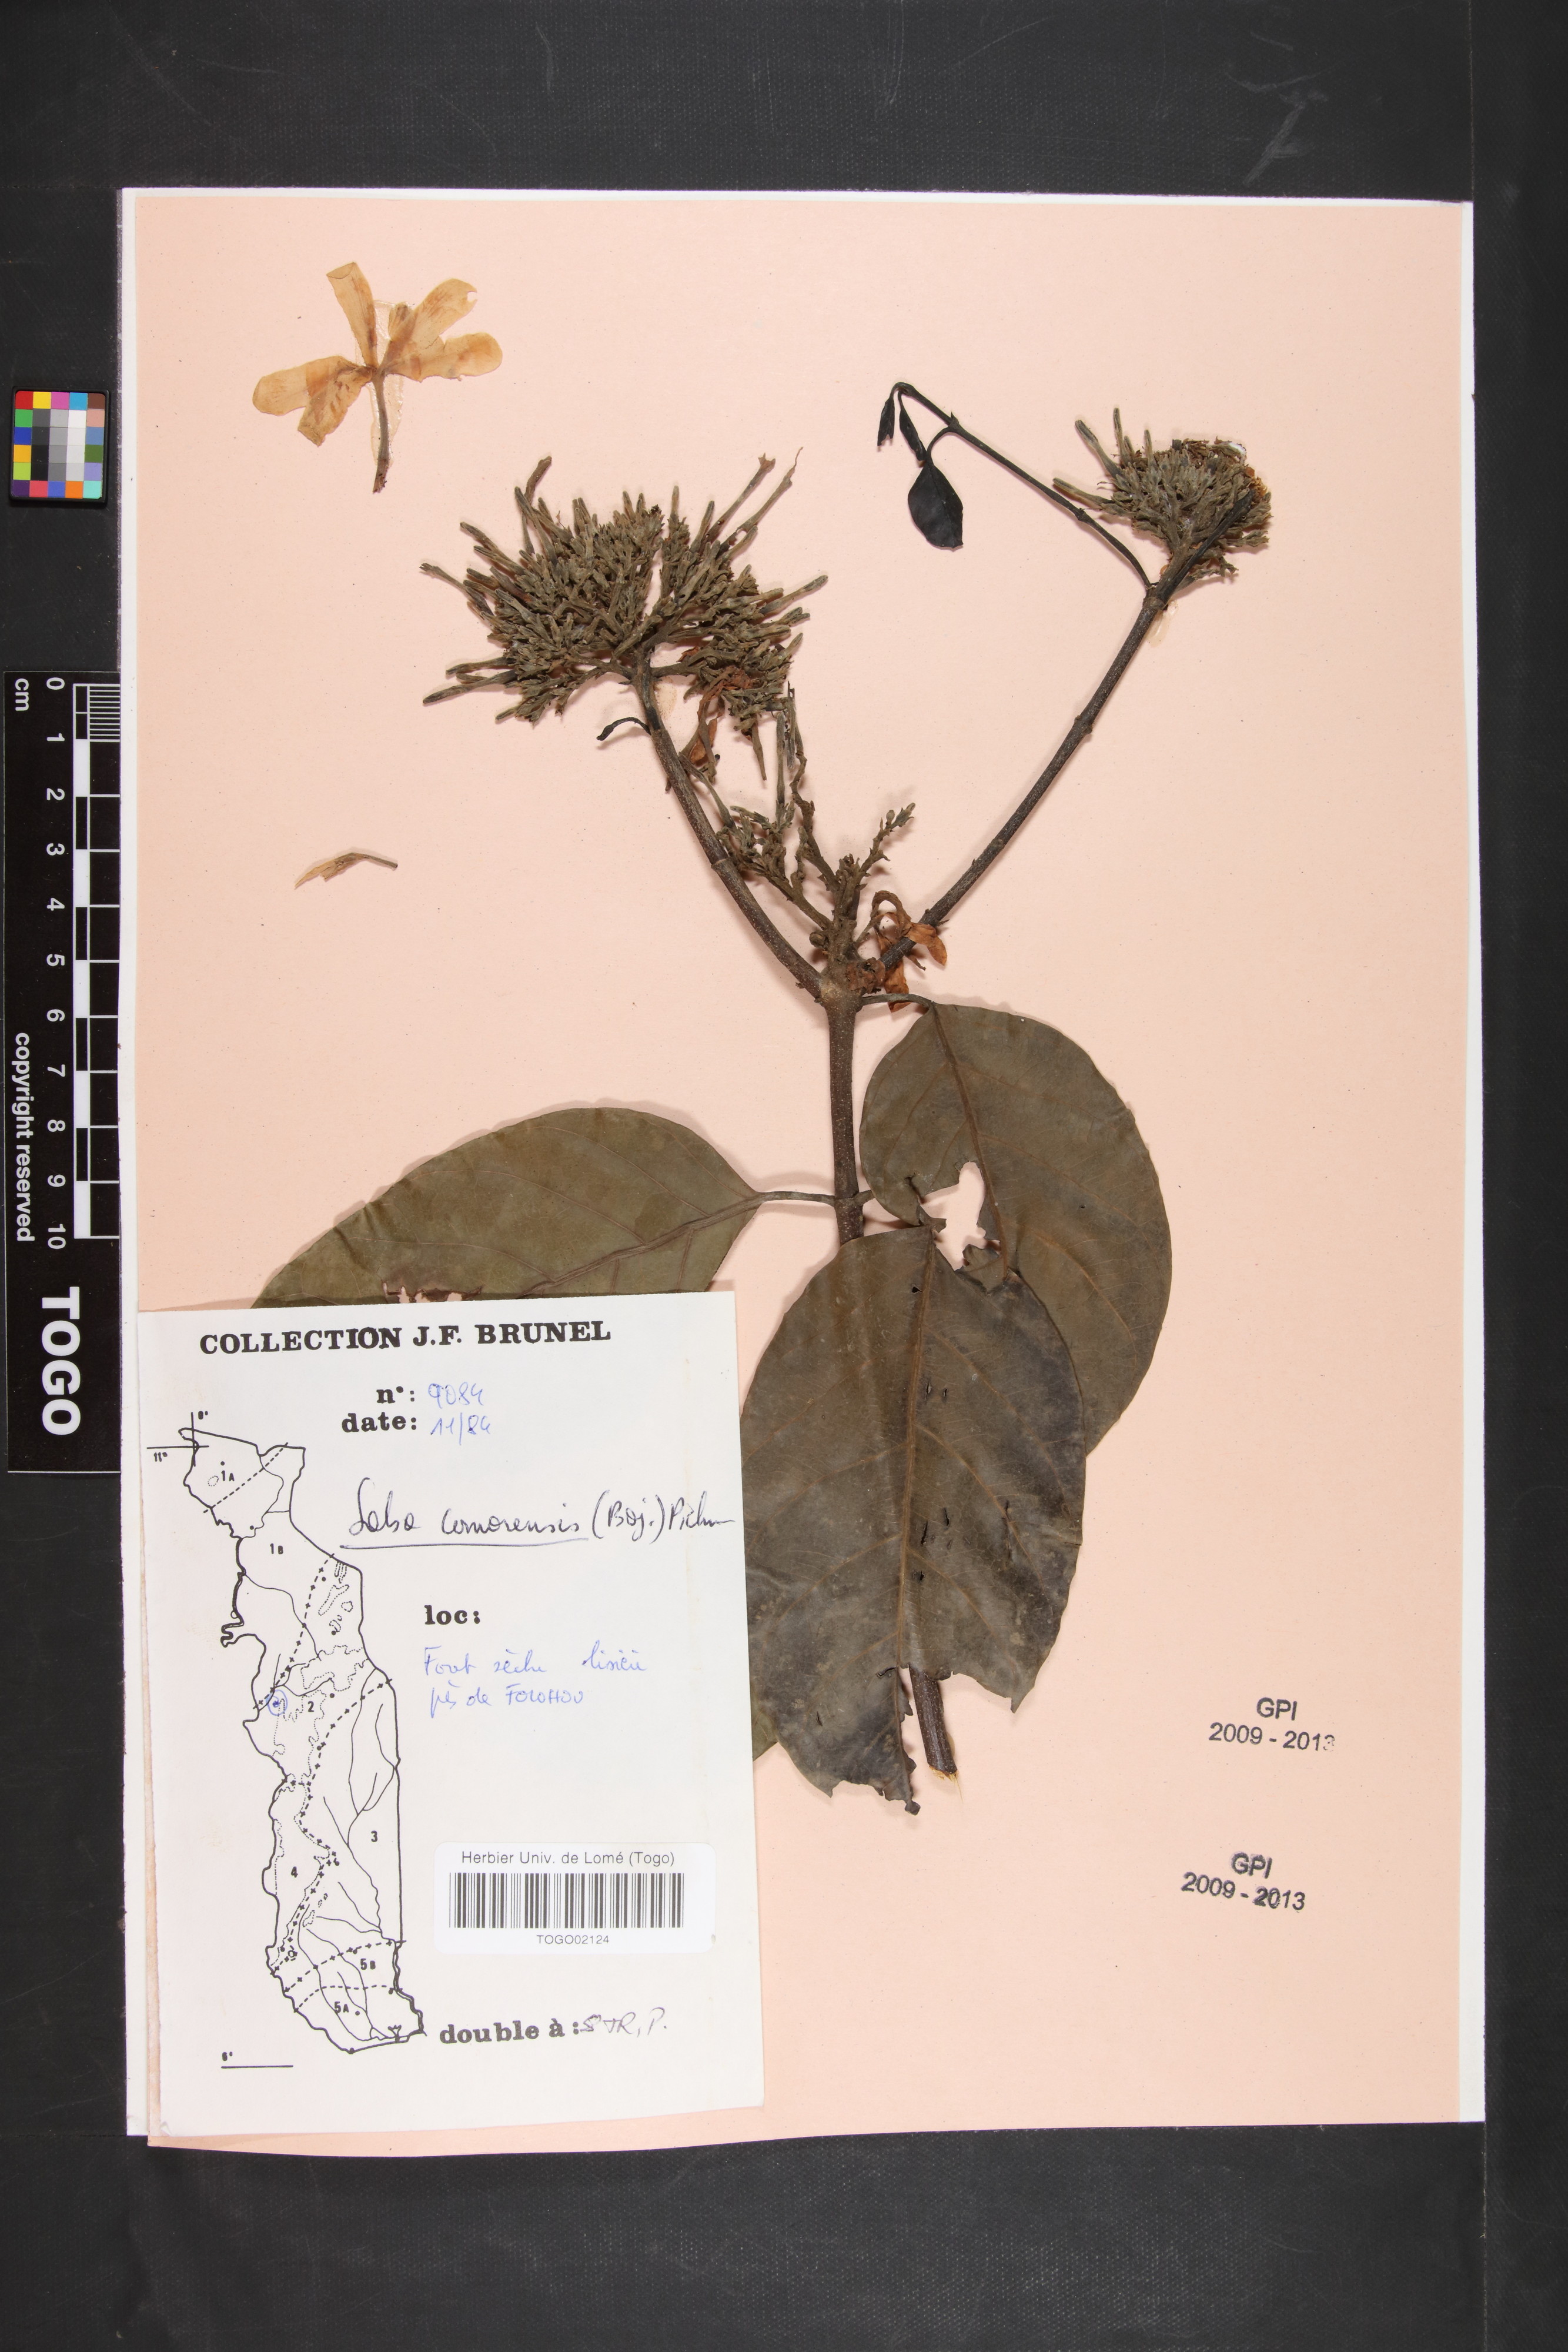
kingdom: Plantae
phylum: Tracheophyta
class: Magnoliopsida
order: Gentianales
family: Apocynaceae
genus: Saba
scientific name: Saba comorensis
